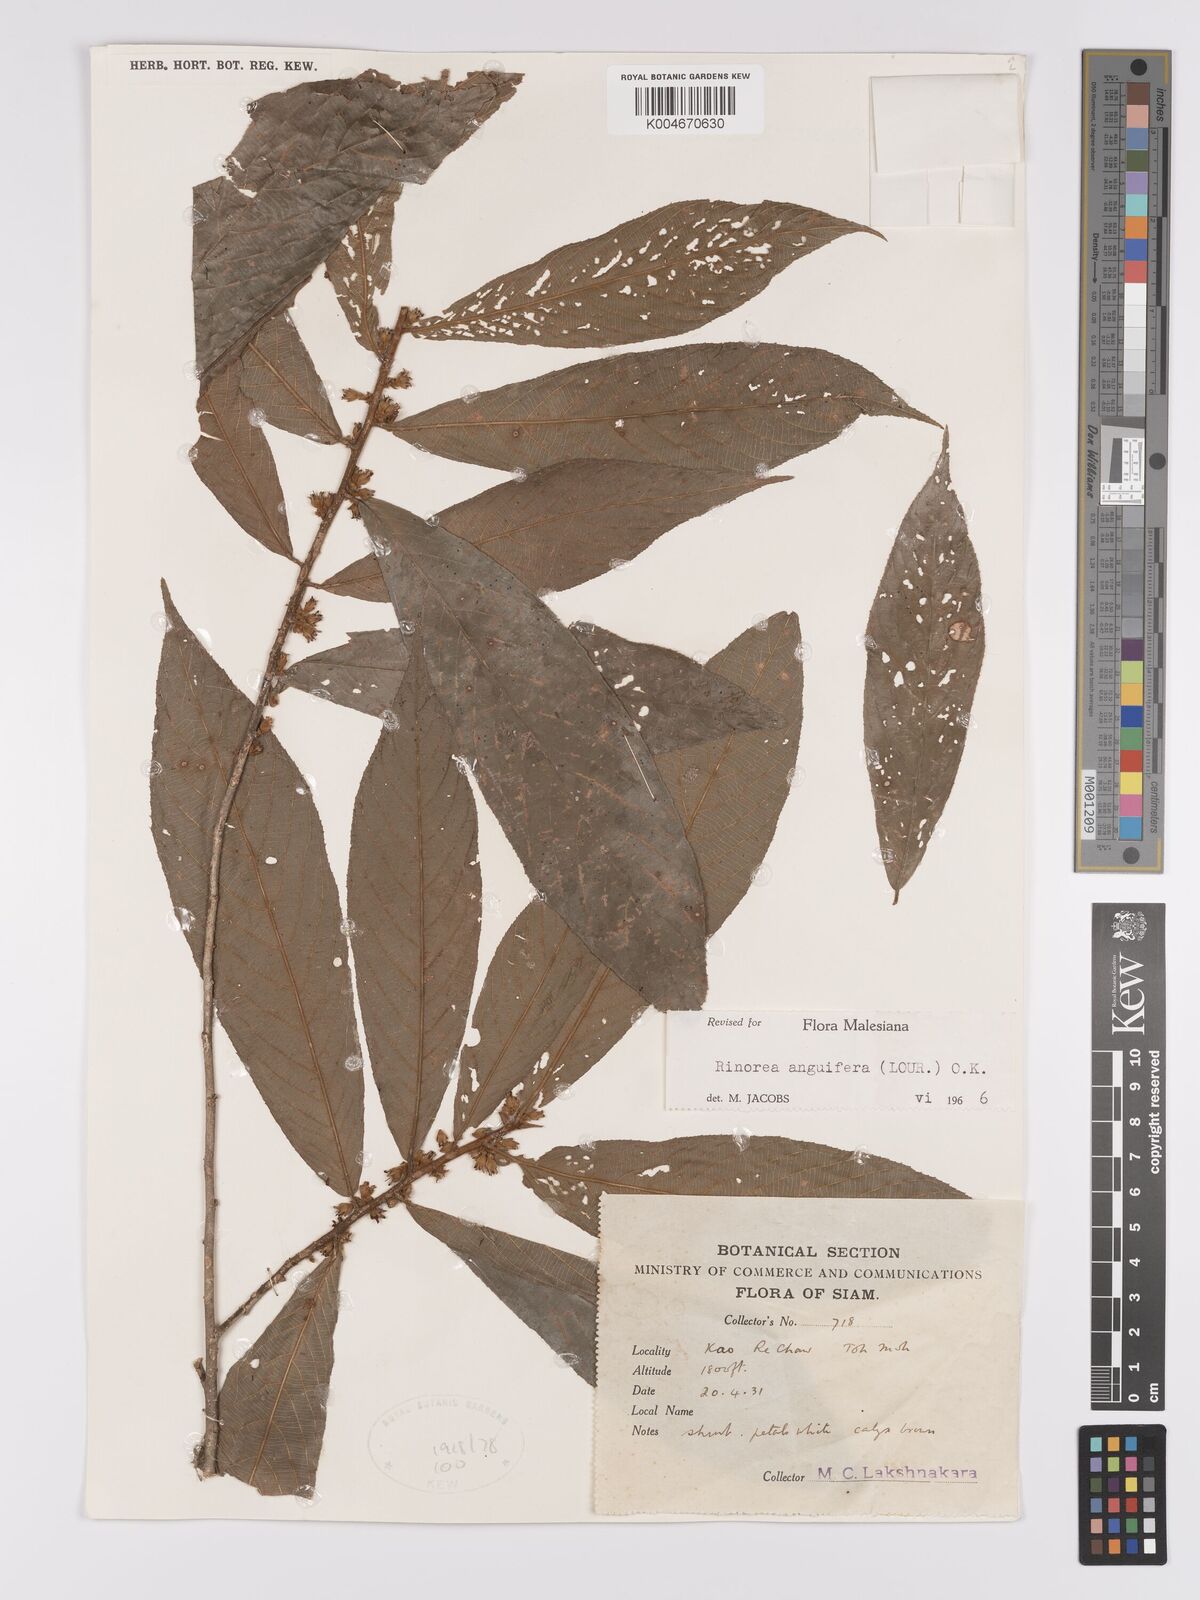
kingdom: Plantae
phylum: Tracheophyta
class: Magnoliopsida
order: Malpighiales
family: Violaceae
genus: Rinorea
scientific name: Rinorea anguifera
